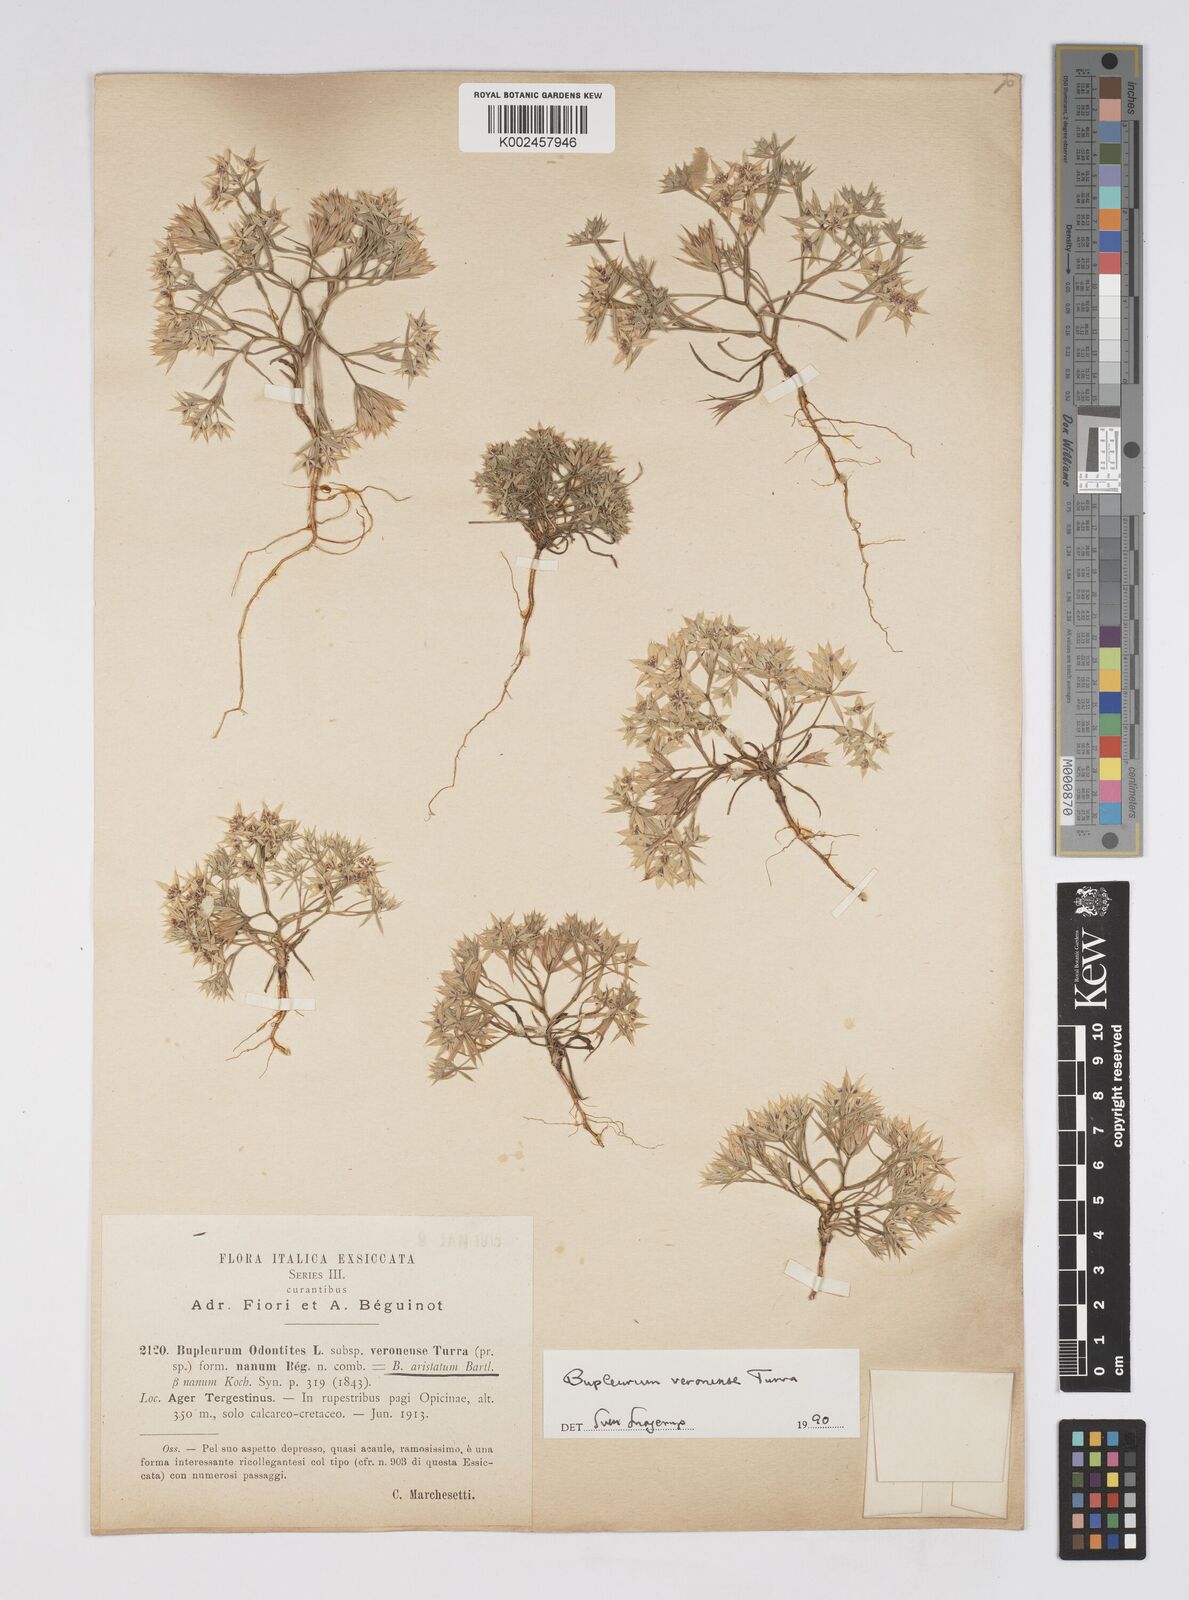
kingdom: Plantae
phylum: Tracheophyta
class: Magnoliopsida
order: Apiales
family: Apiaceae
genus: Bupleurum
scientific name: Bupleurum glumaceum
